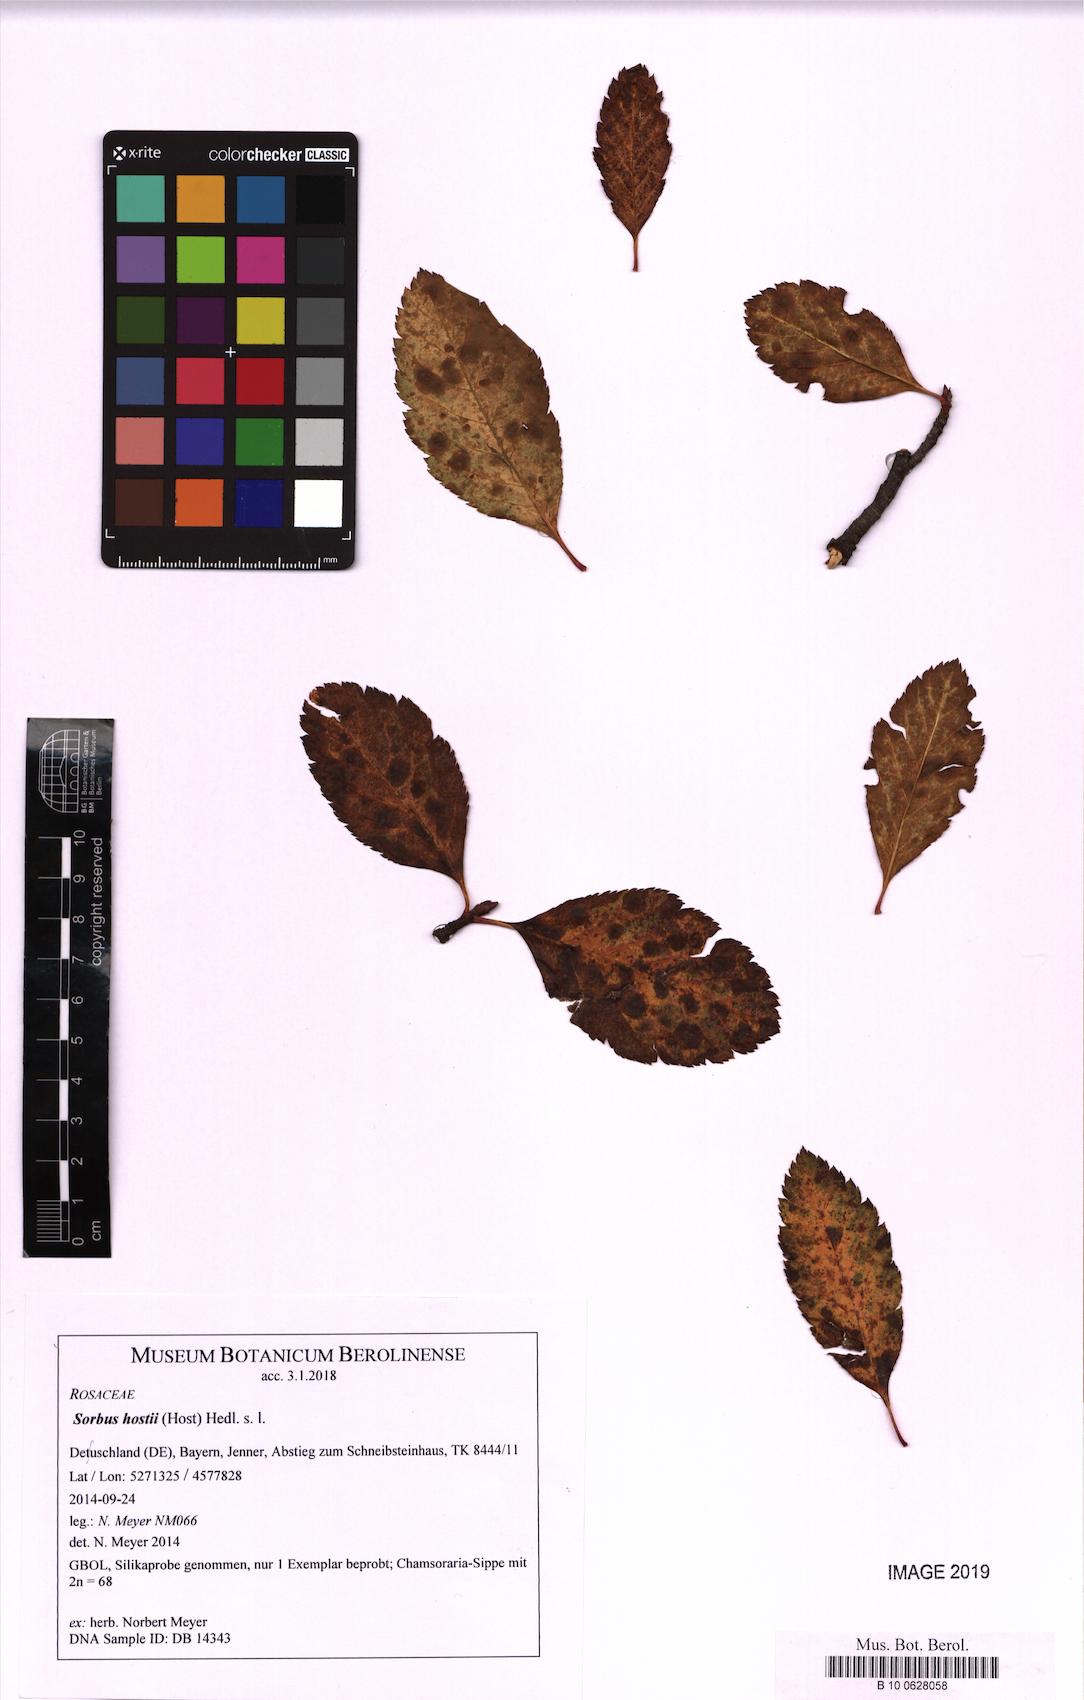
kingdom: Plantae
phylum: Tracheophyta
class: Magnoliopsida
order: Rosales
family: Rosaceae
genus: Sorbus
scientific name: Sorbus hostii
